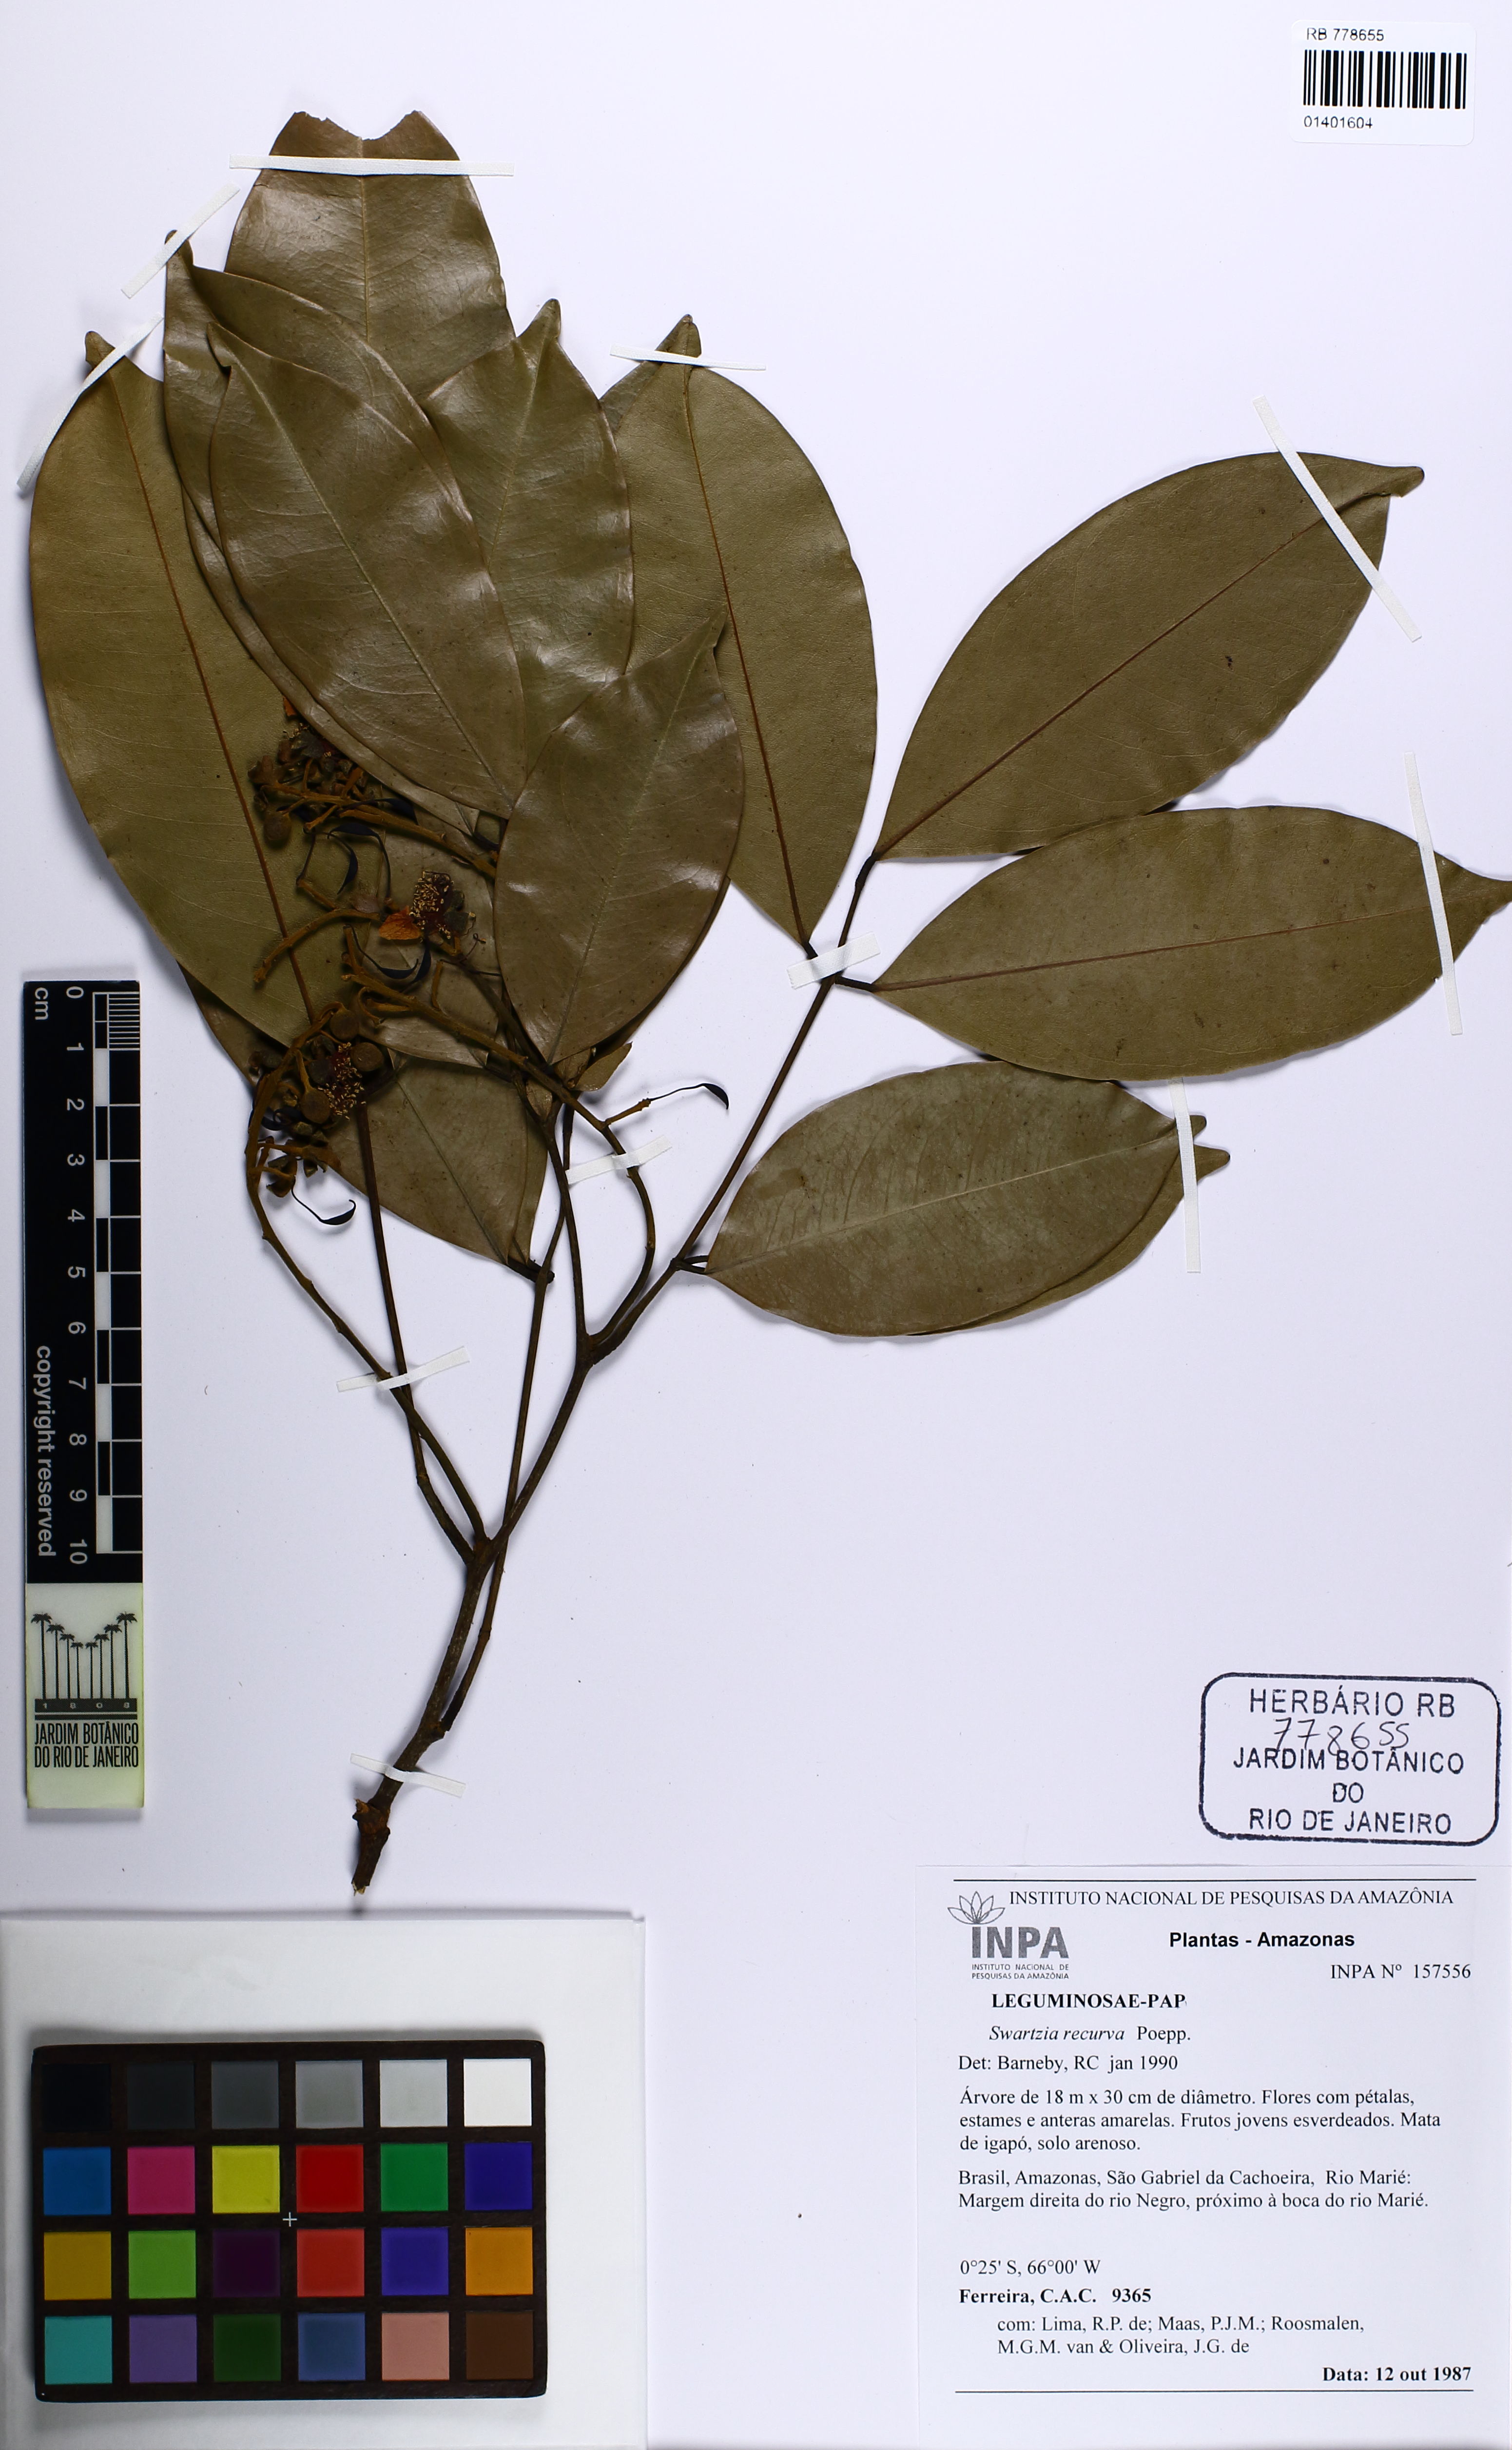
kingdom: Plantae
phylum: Tracheophyta
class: Magnoliopsida
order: Fabales
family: Fabaceae
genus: Swartzia
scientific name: Swartzia recurva
